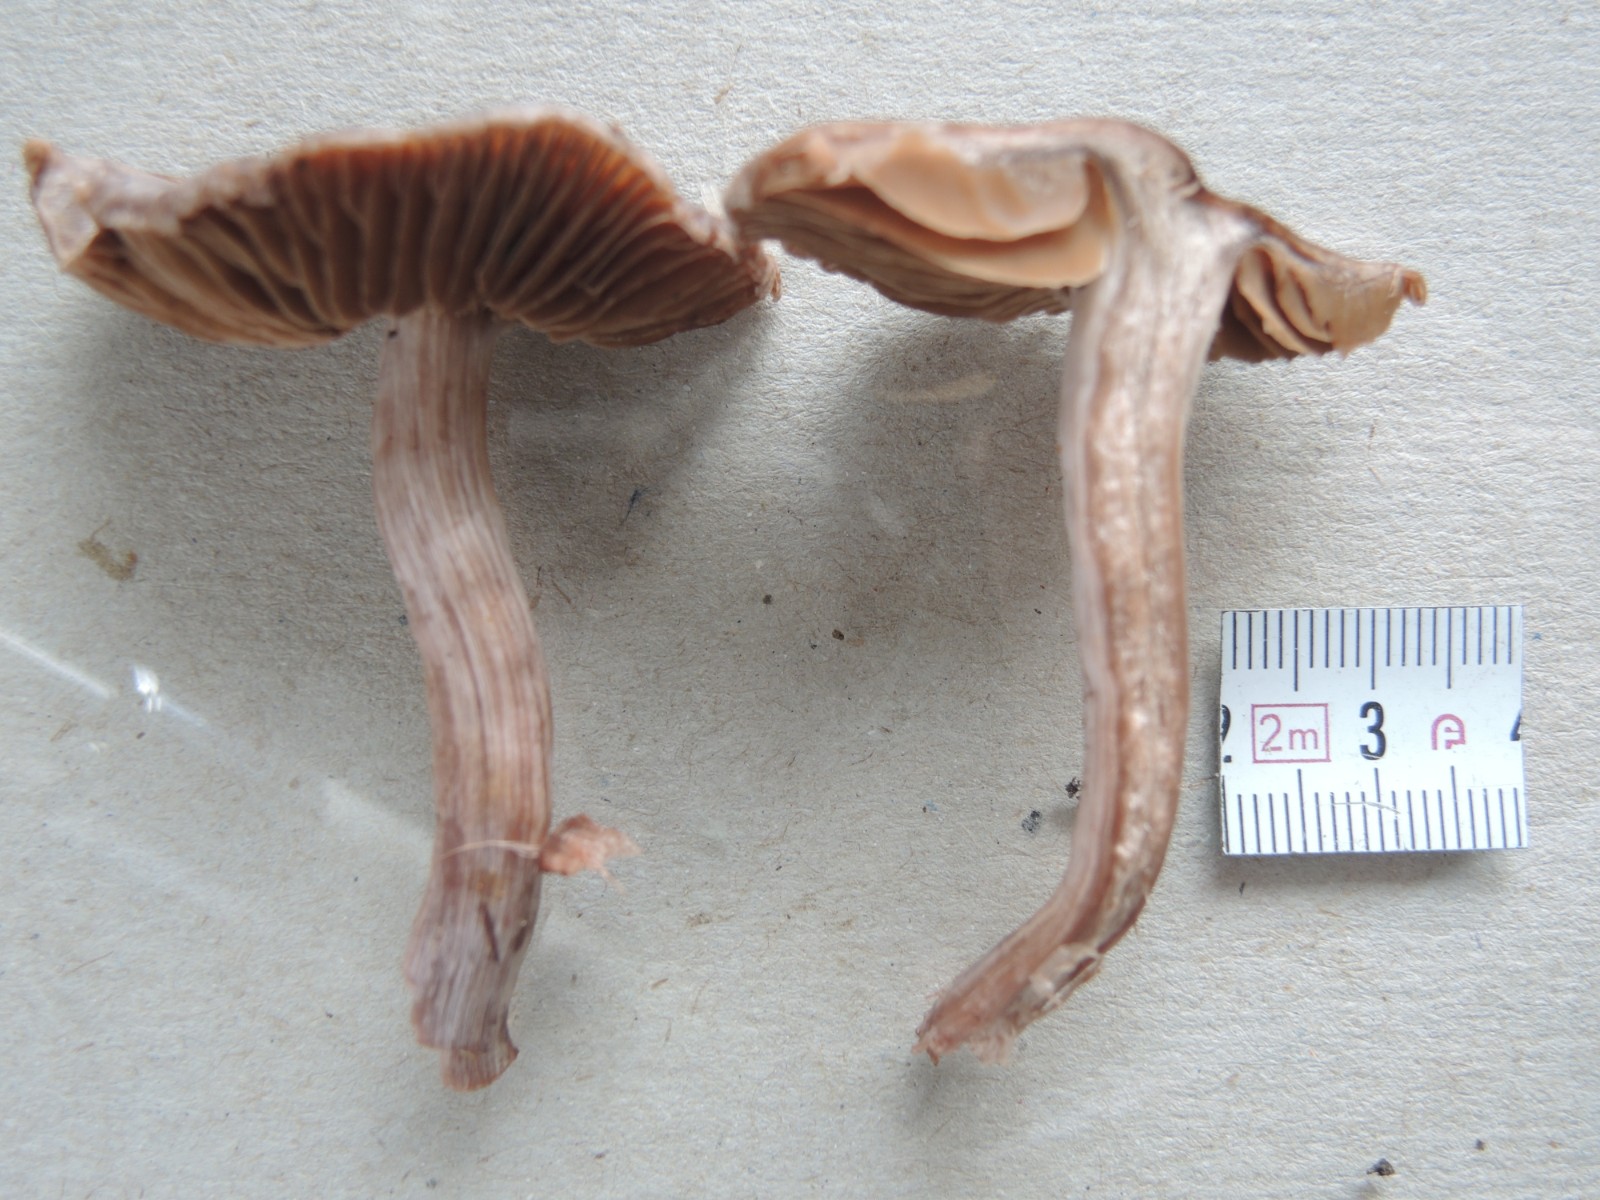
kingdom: Fungi
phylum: Basidiomycota
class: Agaricomycetes
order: Agaricales
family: Cortinariaceae
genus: Cortinarius
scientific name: Cortinarius vernus
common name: sommer-slørhat
